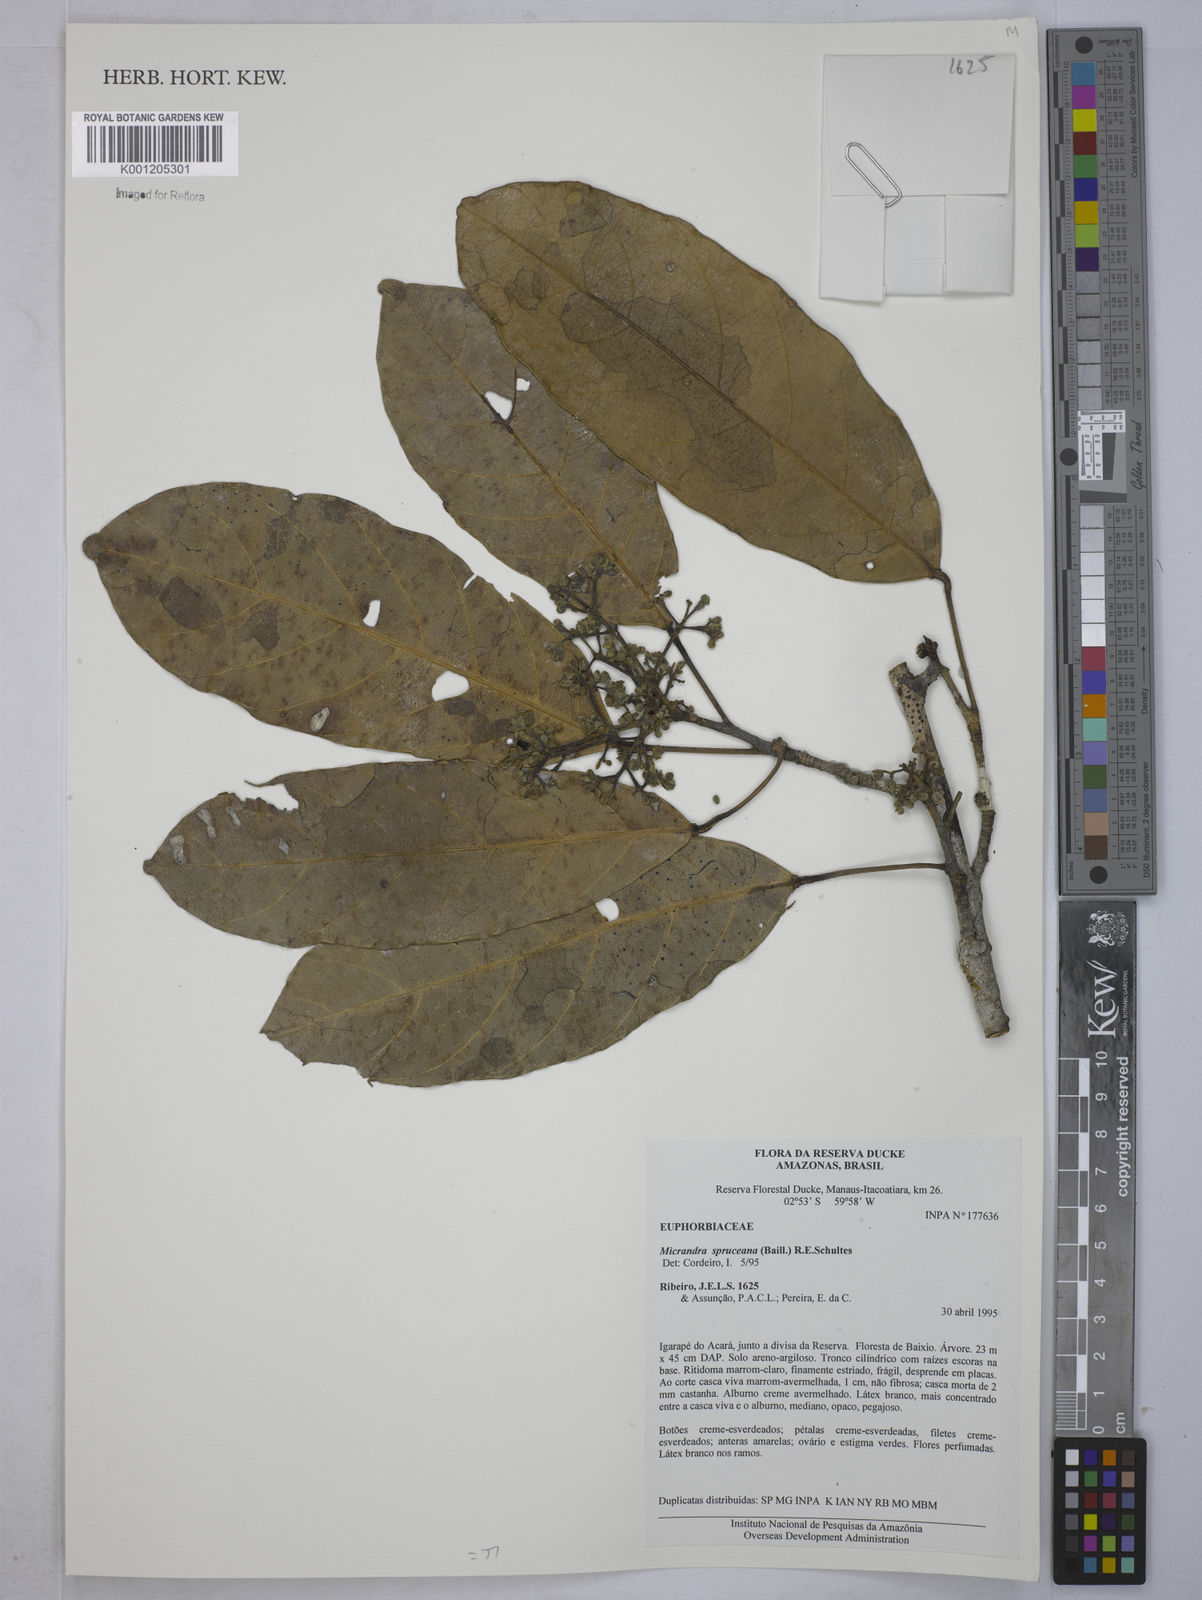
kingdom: Plantae
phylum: Tracheophyta
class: Magnoliopsida
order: Malpighiales
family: Euphorbiaceae
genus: Micrandra
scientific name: Micrandra spruceana
